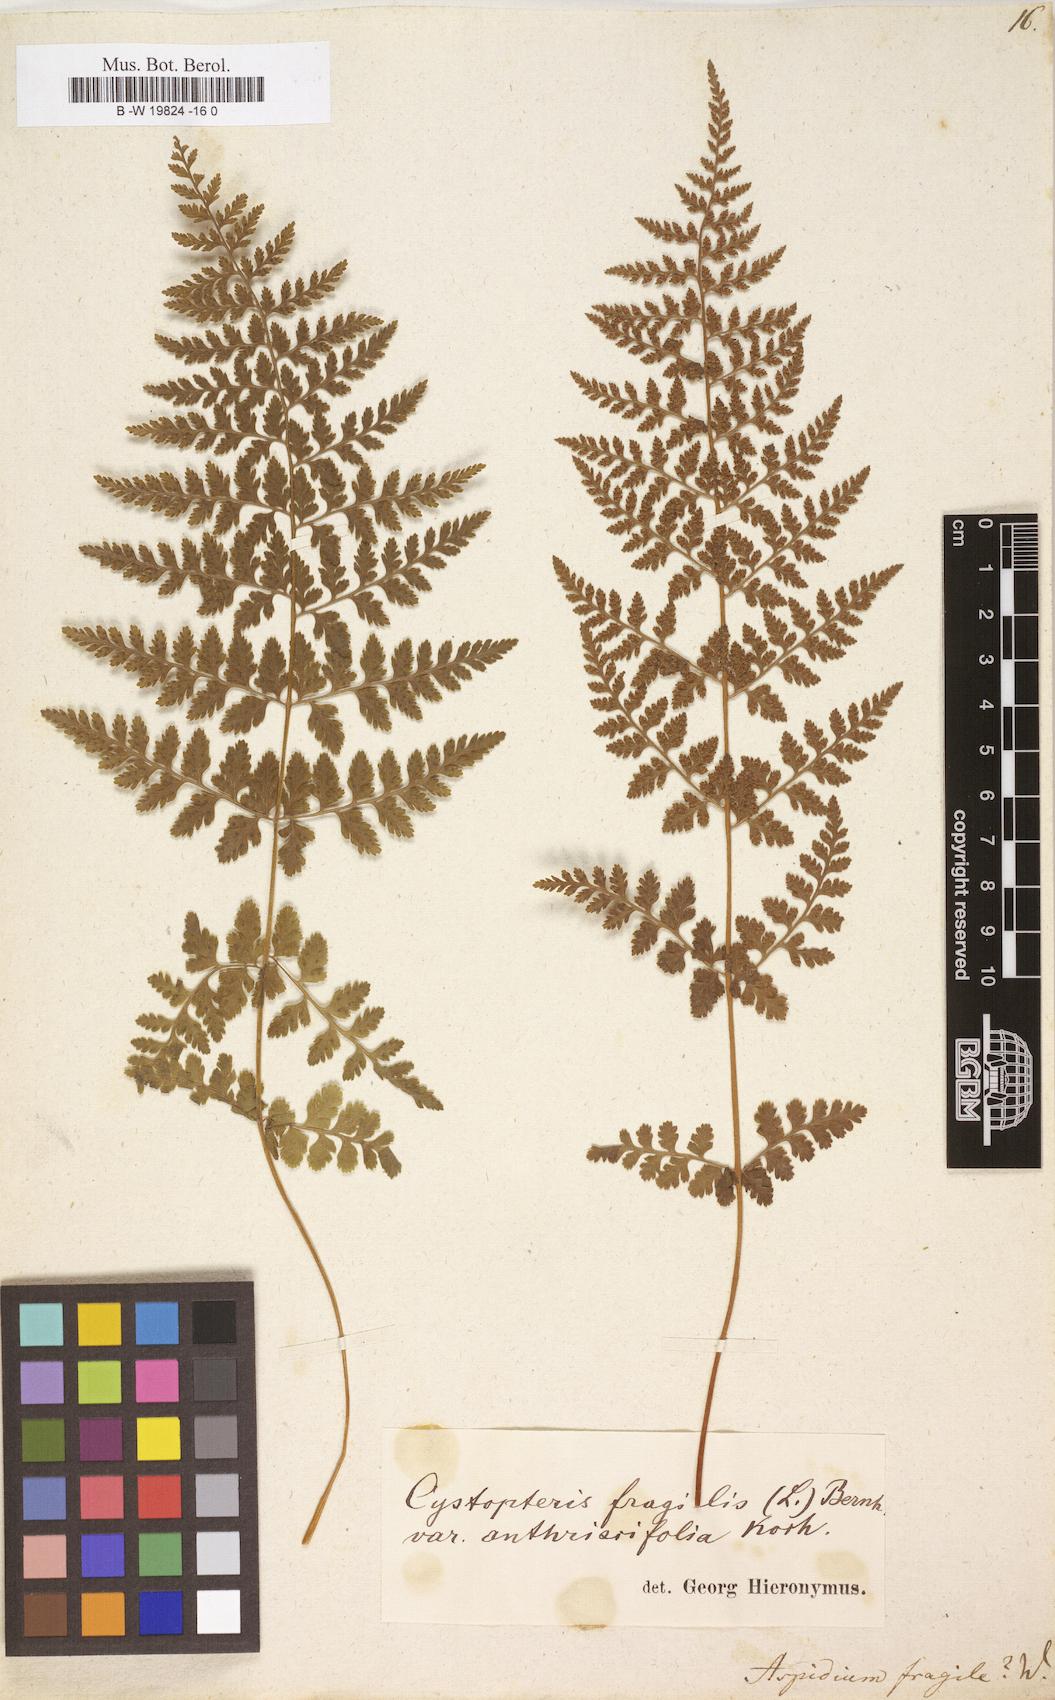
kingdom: Plantae
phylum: Tracheophyta
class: Polypodiopsida
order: Polypodiales
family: Cystopteridaceae
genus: Cystopteris
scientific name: Cystopteris fragilis
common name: Brittle bladder fern
